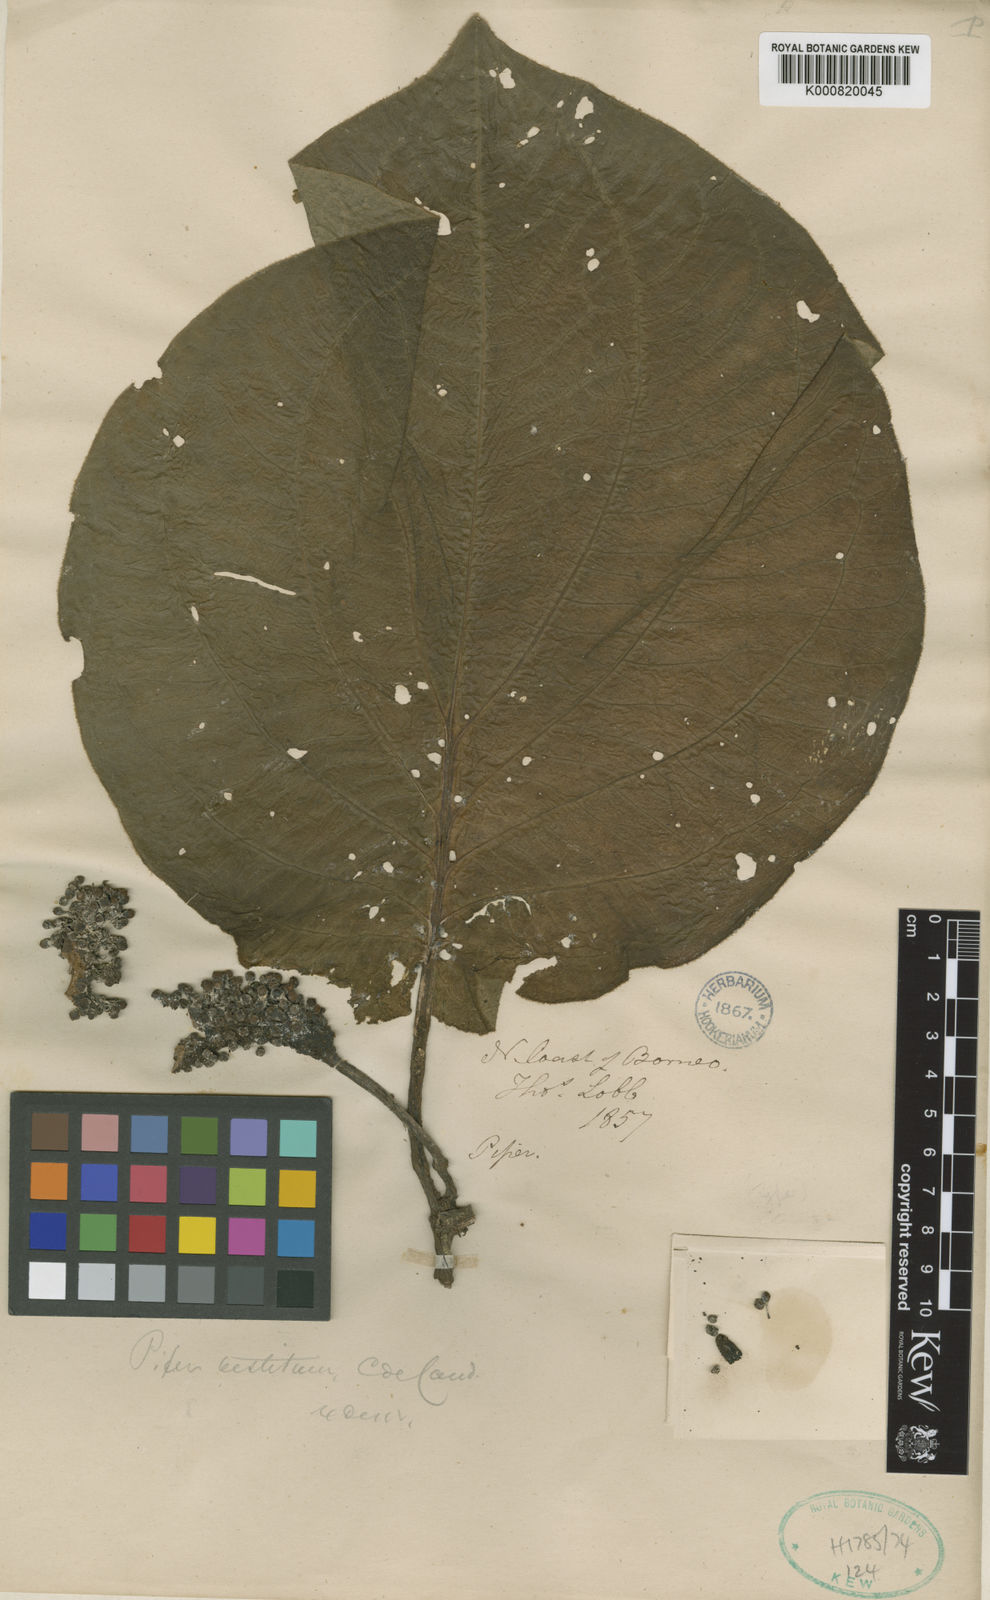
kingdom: Plantae
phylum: Tracheophyta
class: Magnoliopsida
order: Piperales
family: Piperaceae
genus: Piper
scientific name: Piper vestitum
